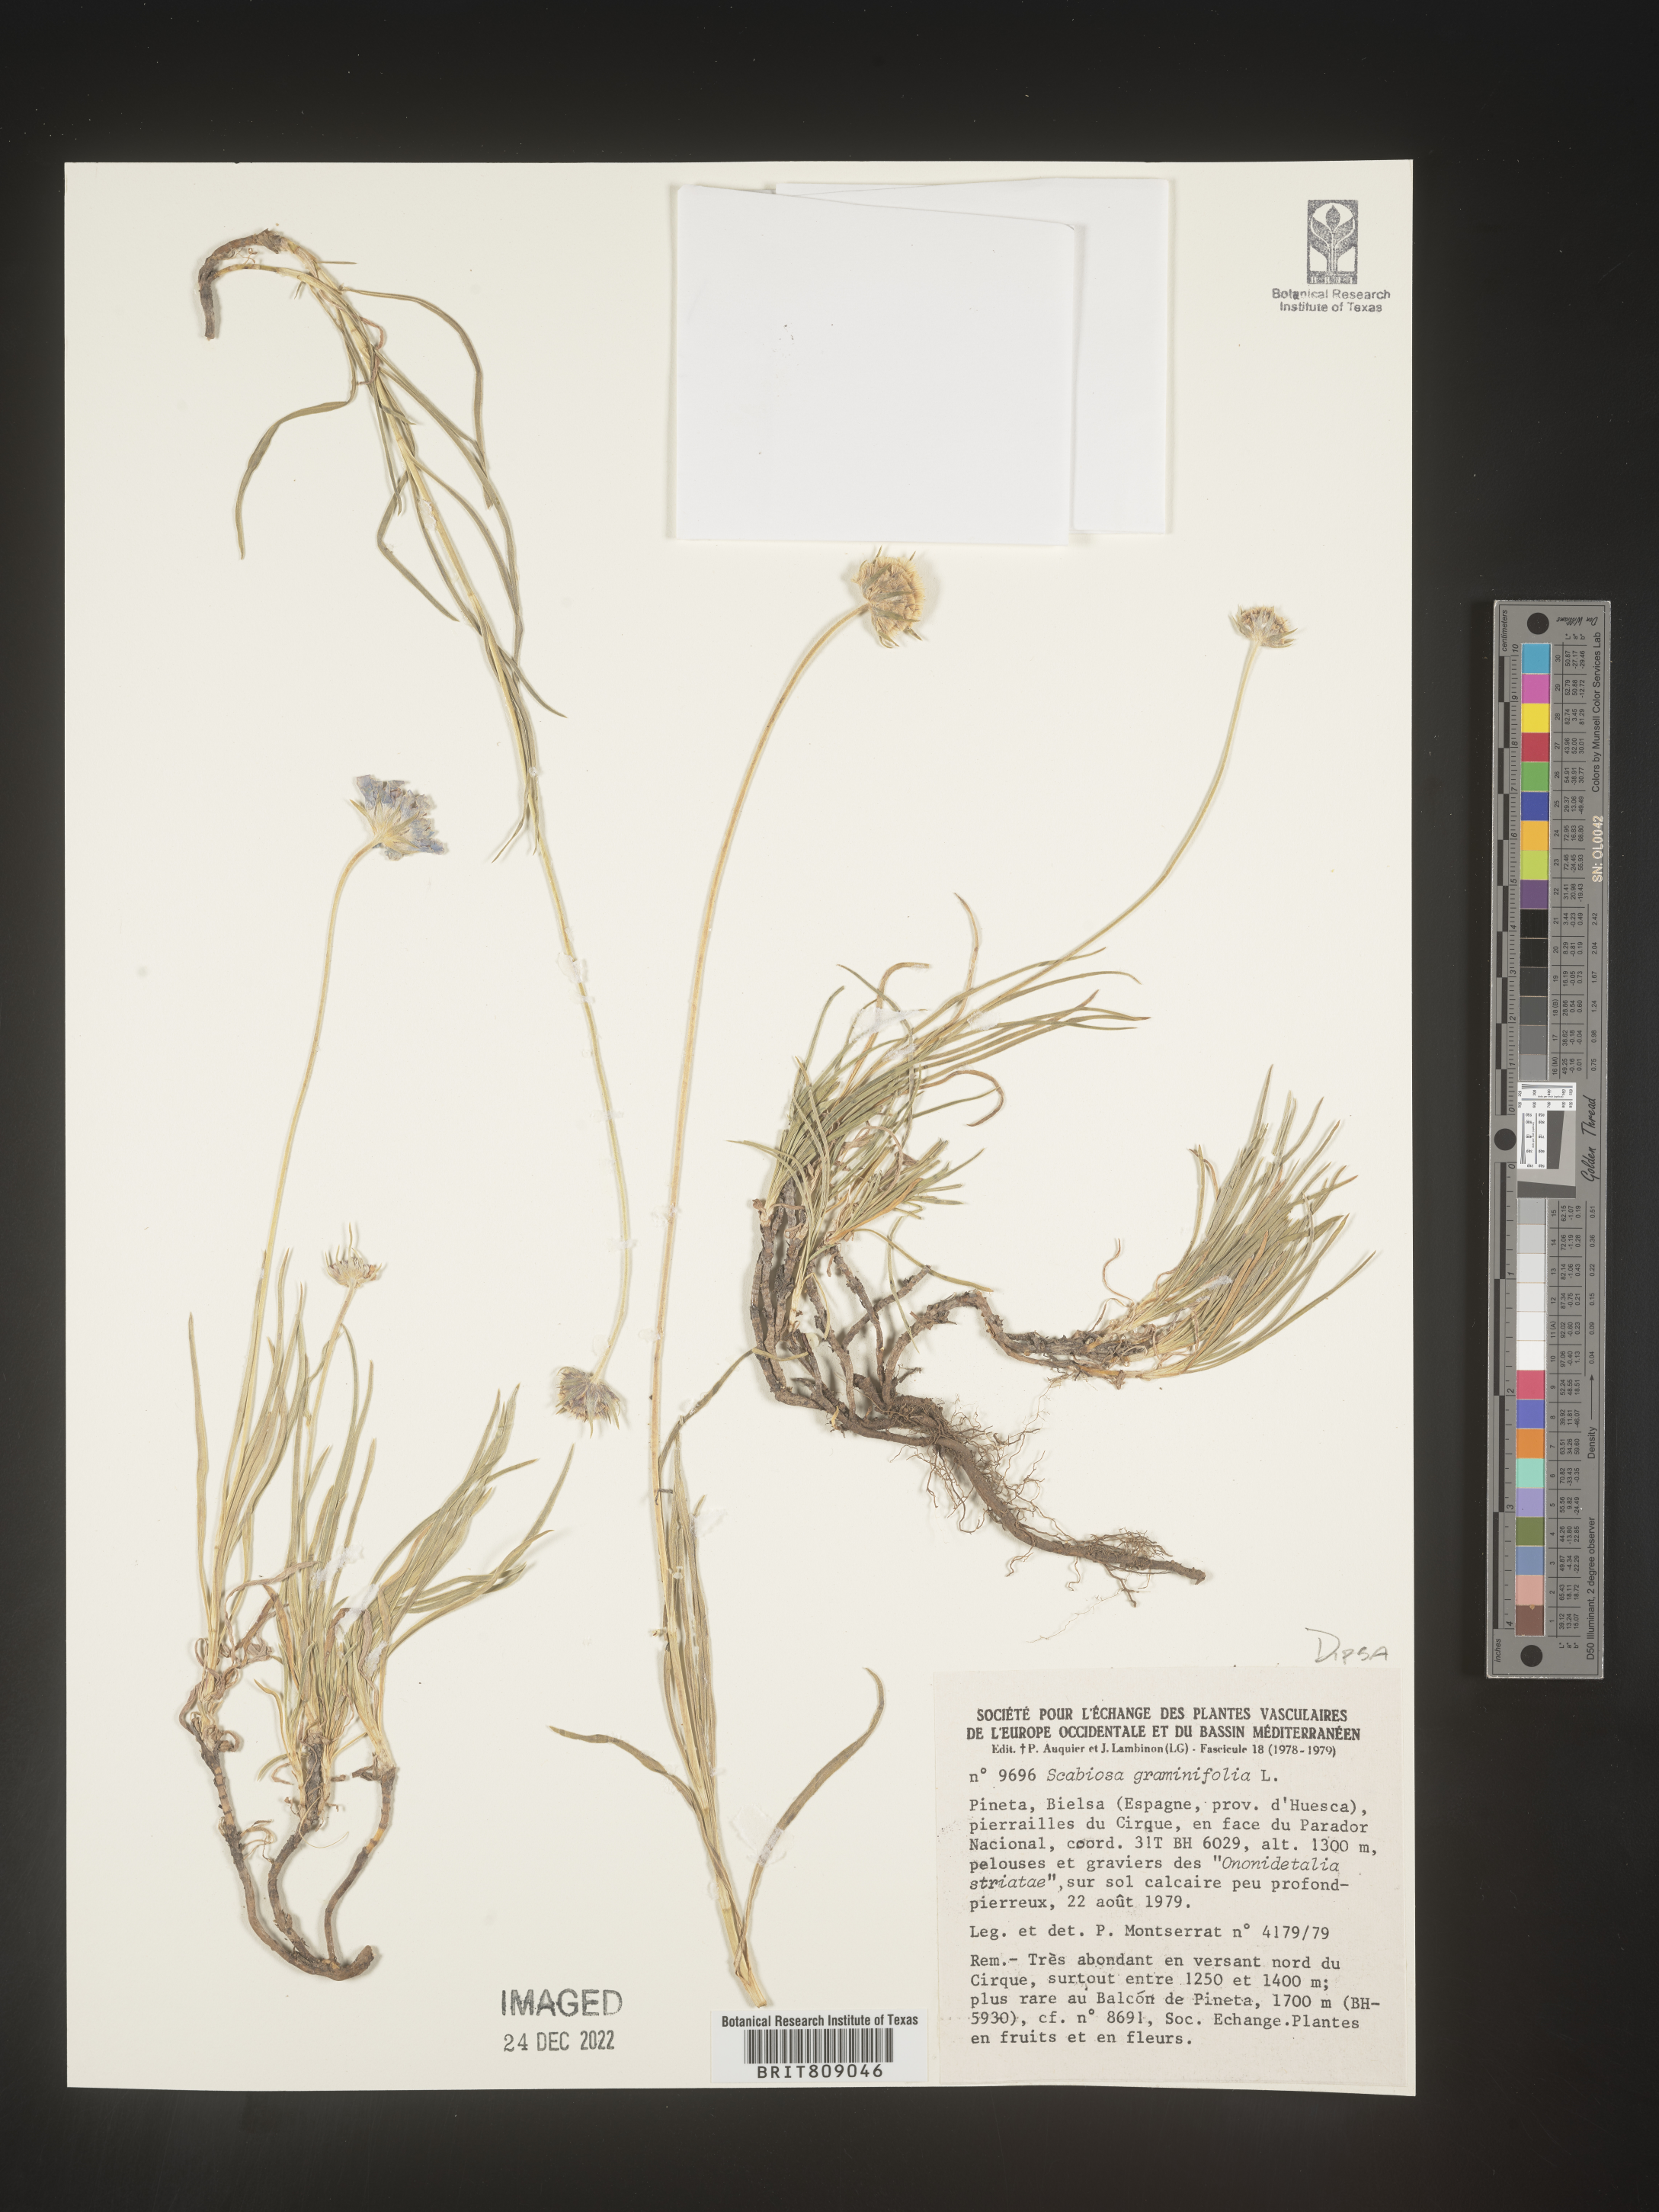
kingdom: Plantae
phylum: Tracheophyta
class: Magnoliopsida
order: Dipsacales
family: Caprifoliaceae
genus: Scabiosa
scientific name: Scabiosa
